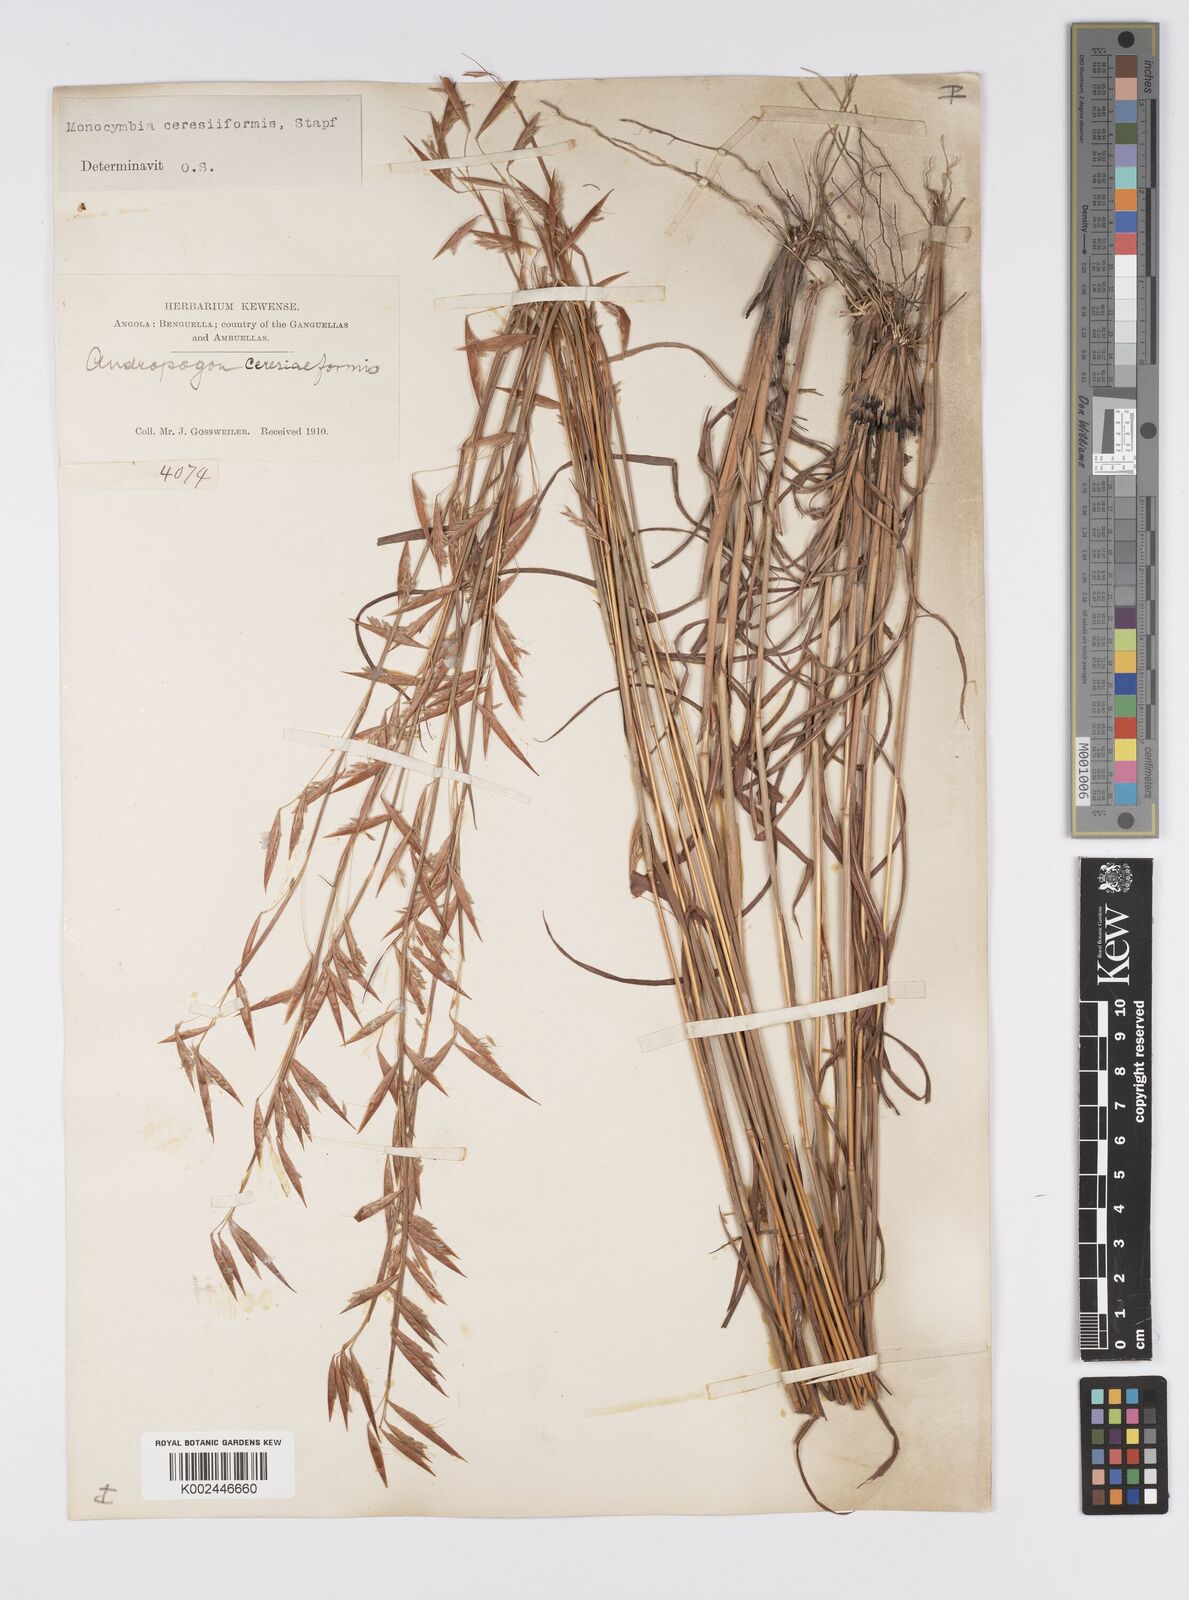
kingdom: Plantae
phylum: Tracheophyta
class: Liliopsida
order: Poales
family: Poaceae
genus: Monocymbium
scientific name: Monocymbium ceresiiforme
